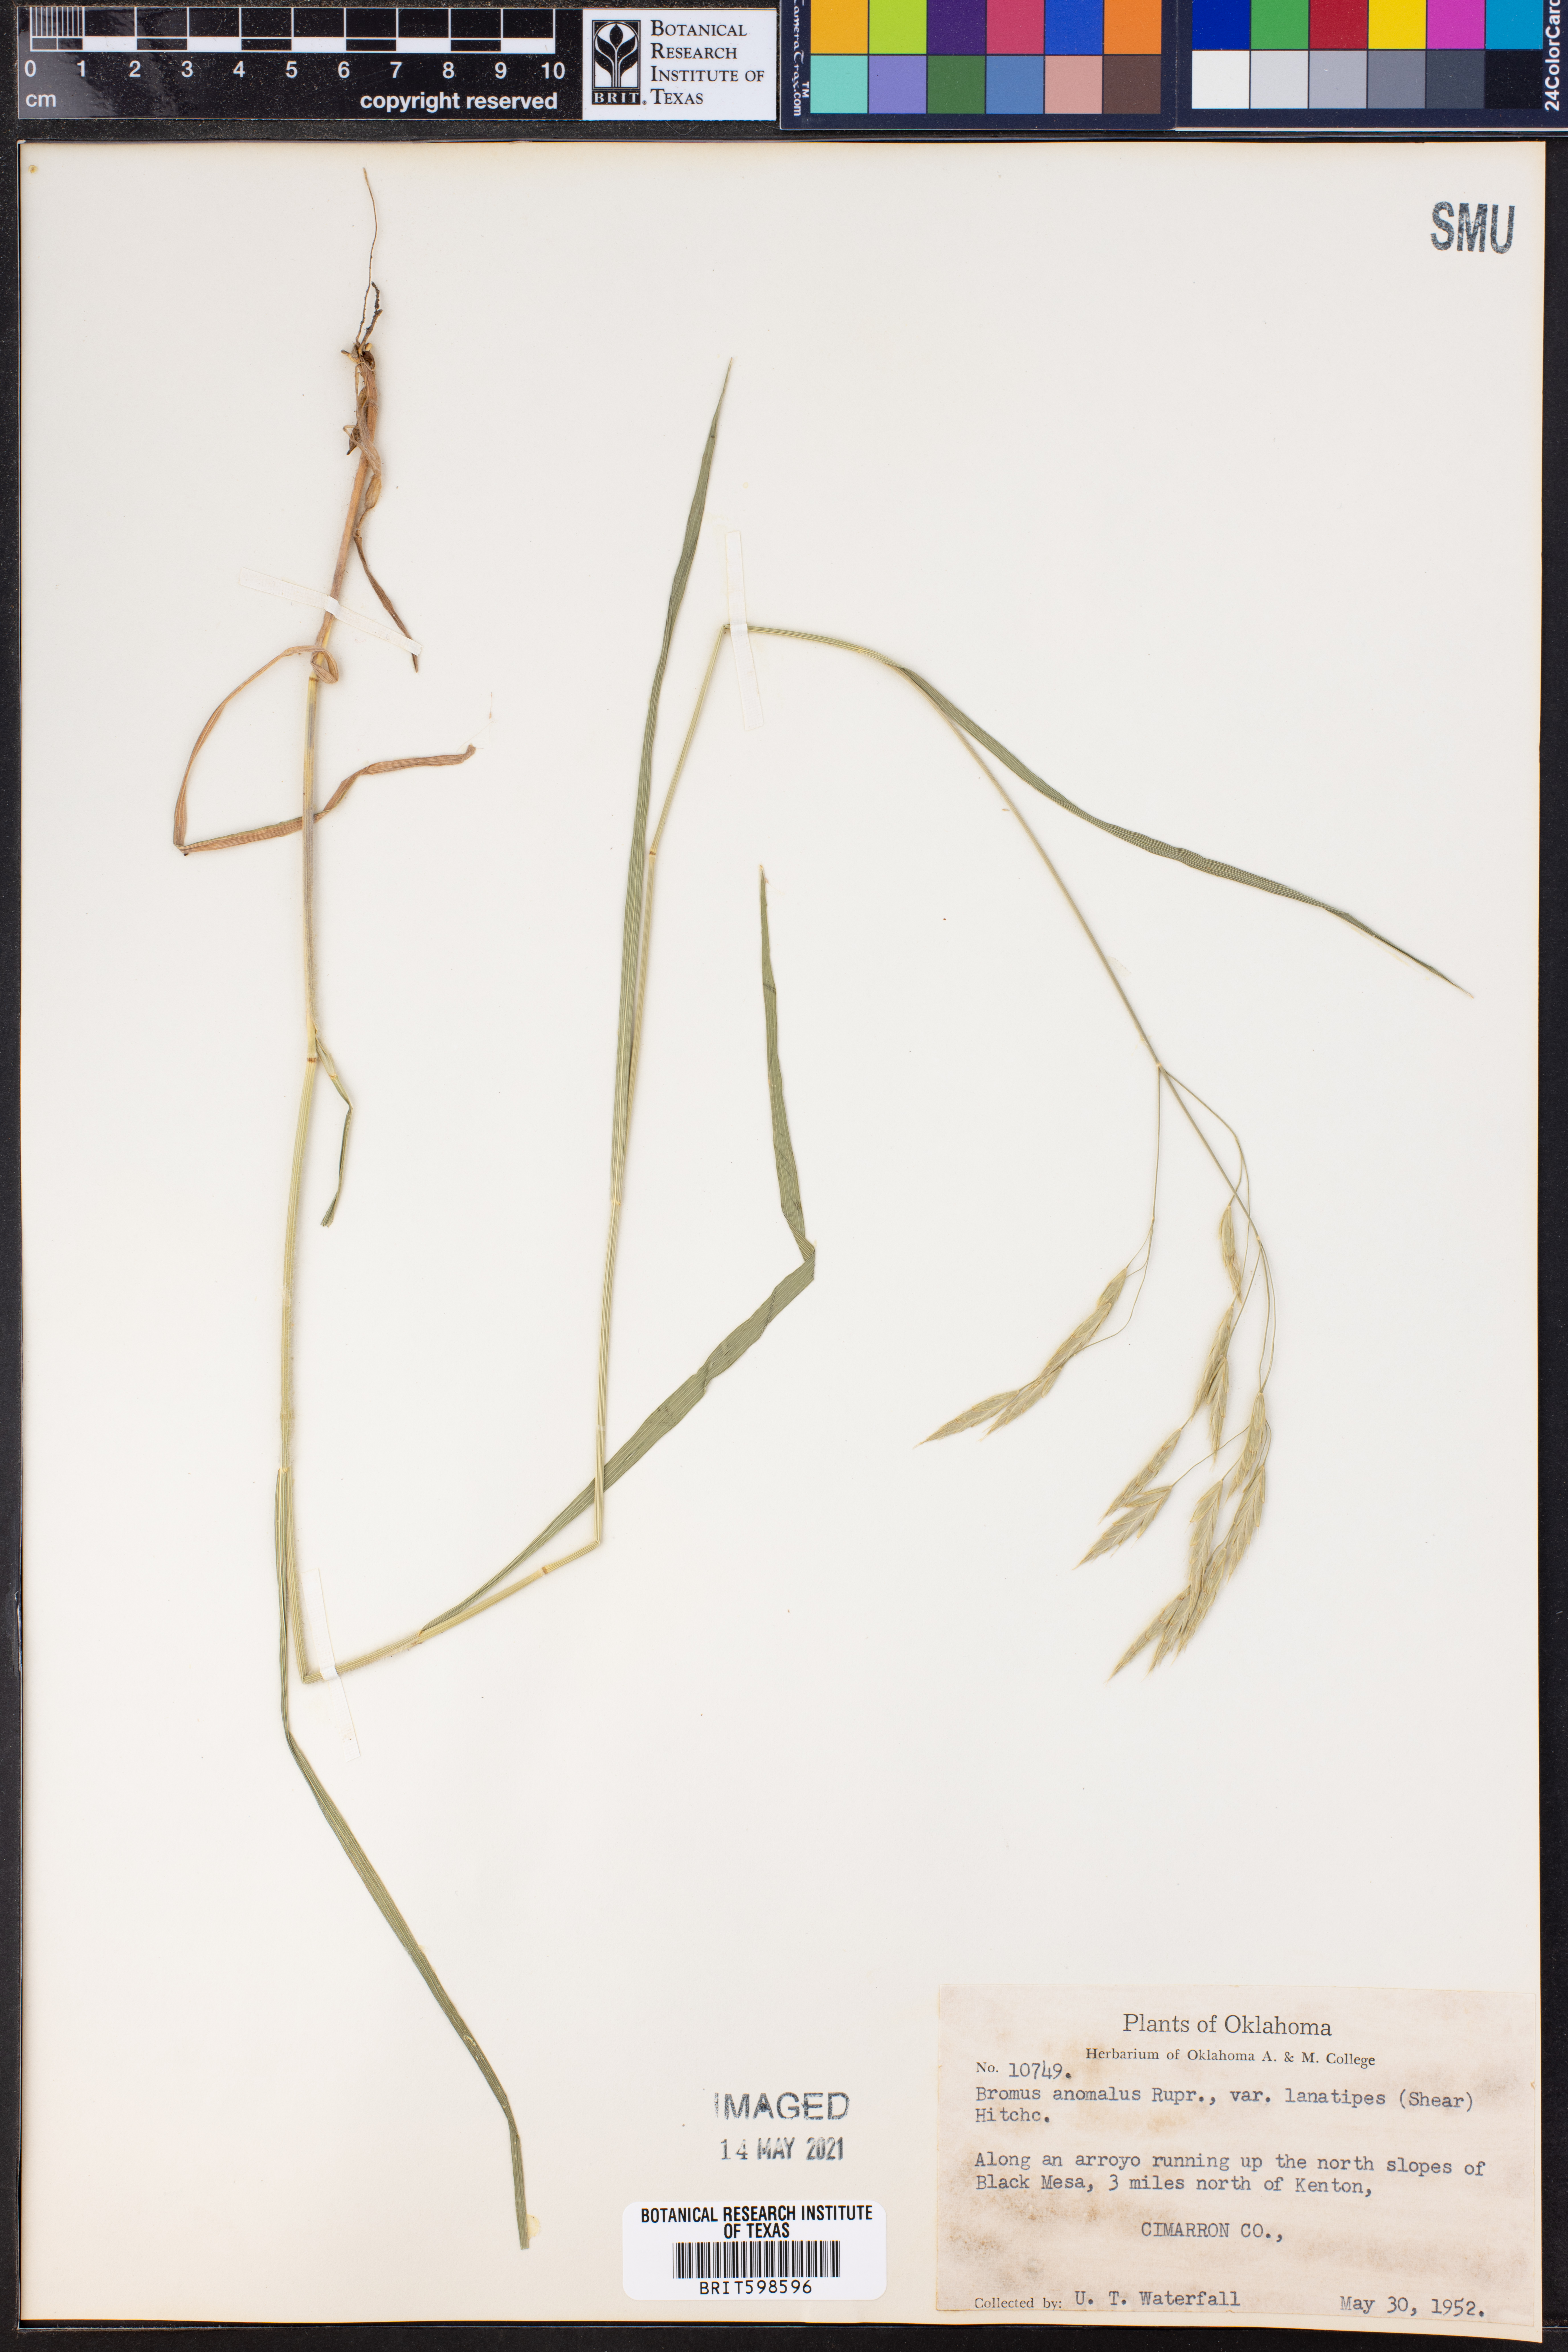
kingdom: Plantae
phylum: Tracheophyta
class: Liliopsida
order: Poales
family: Poaceae
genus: Bromus
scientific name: Bromus lanatipes
